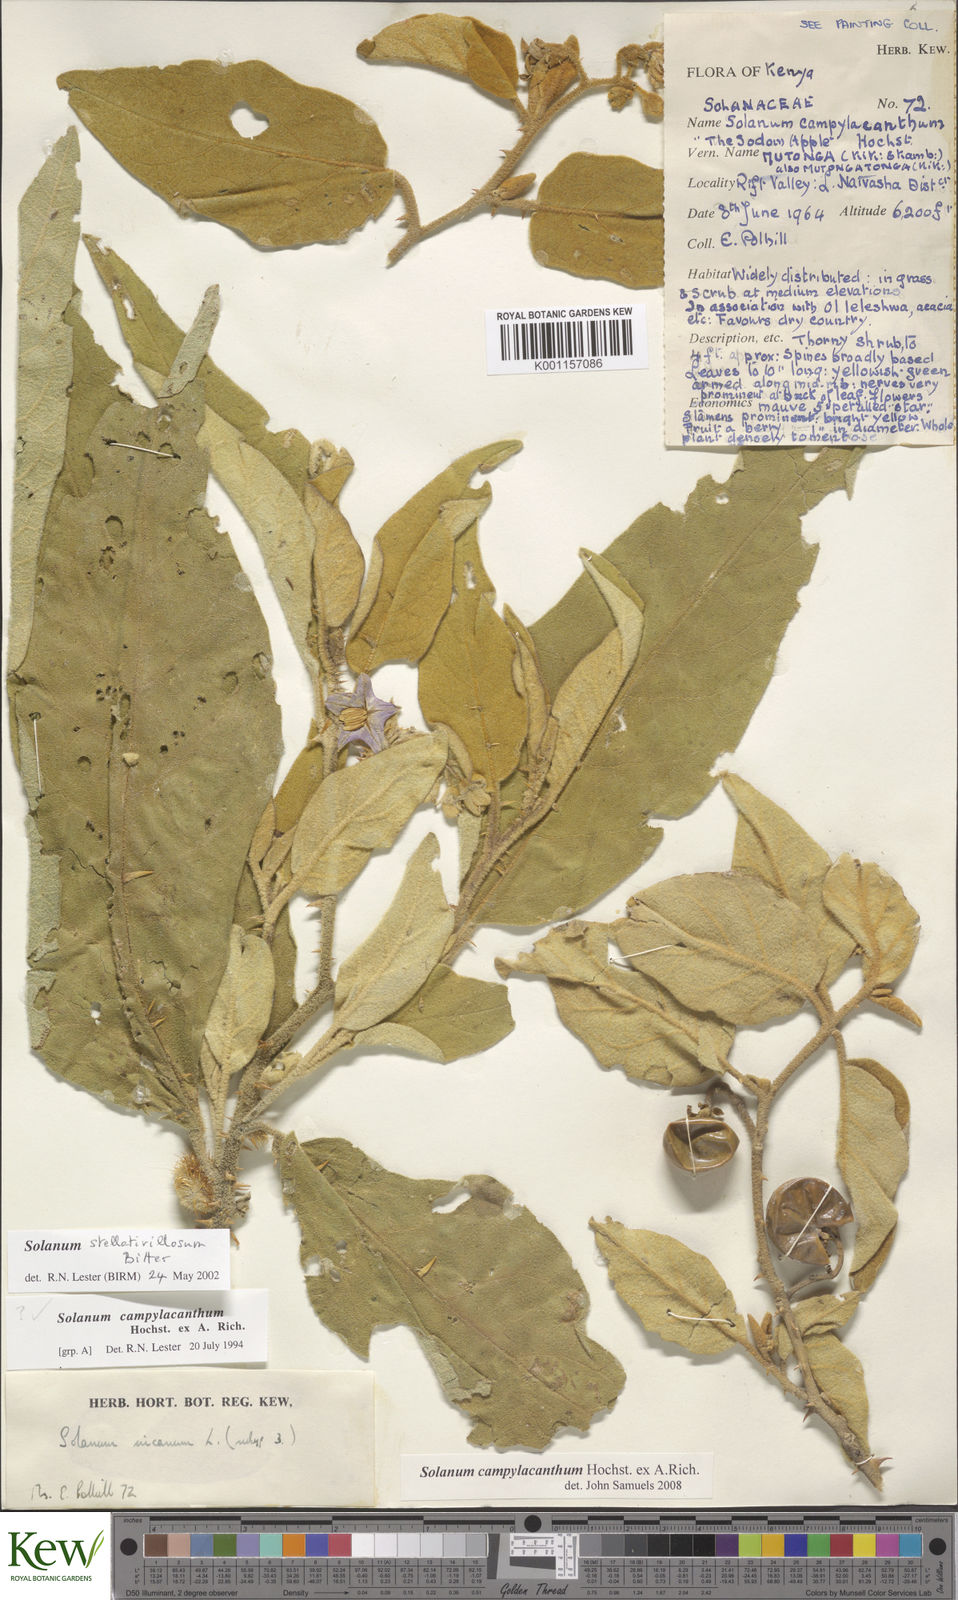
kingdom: Plantae
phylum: Tracheophyta
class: Magnoliopsida
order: Solanales
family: Solanaceae
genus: Solanum
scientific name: Solanum campylacanthum
